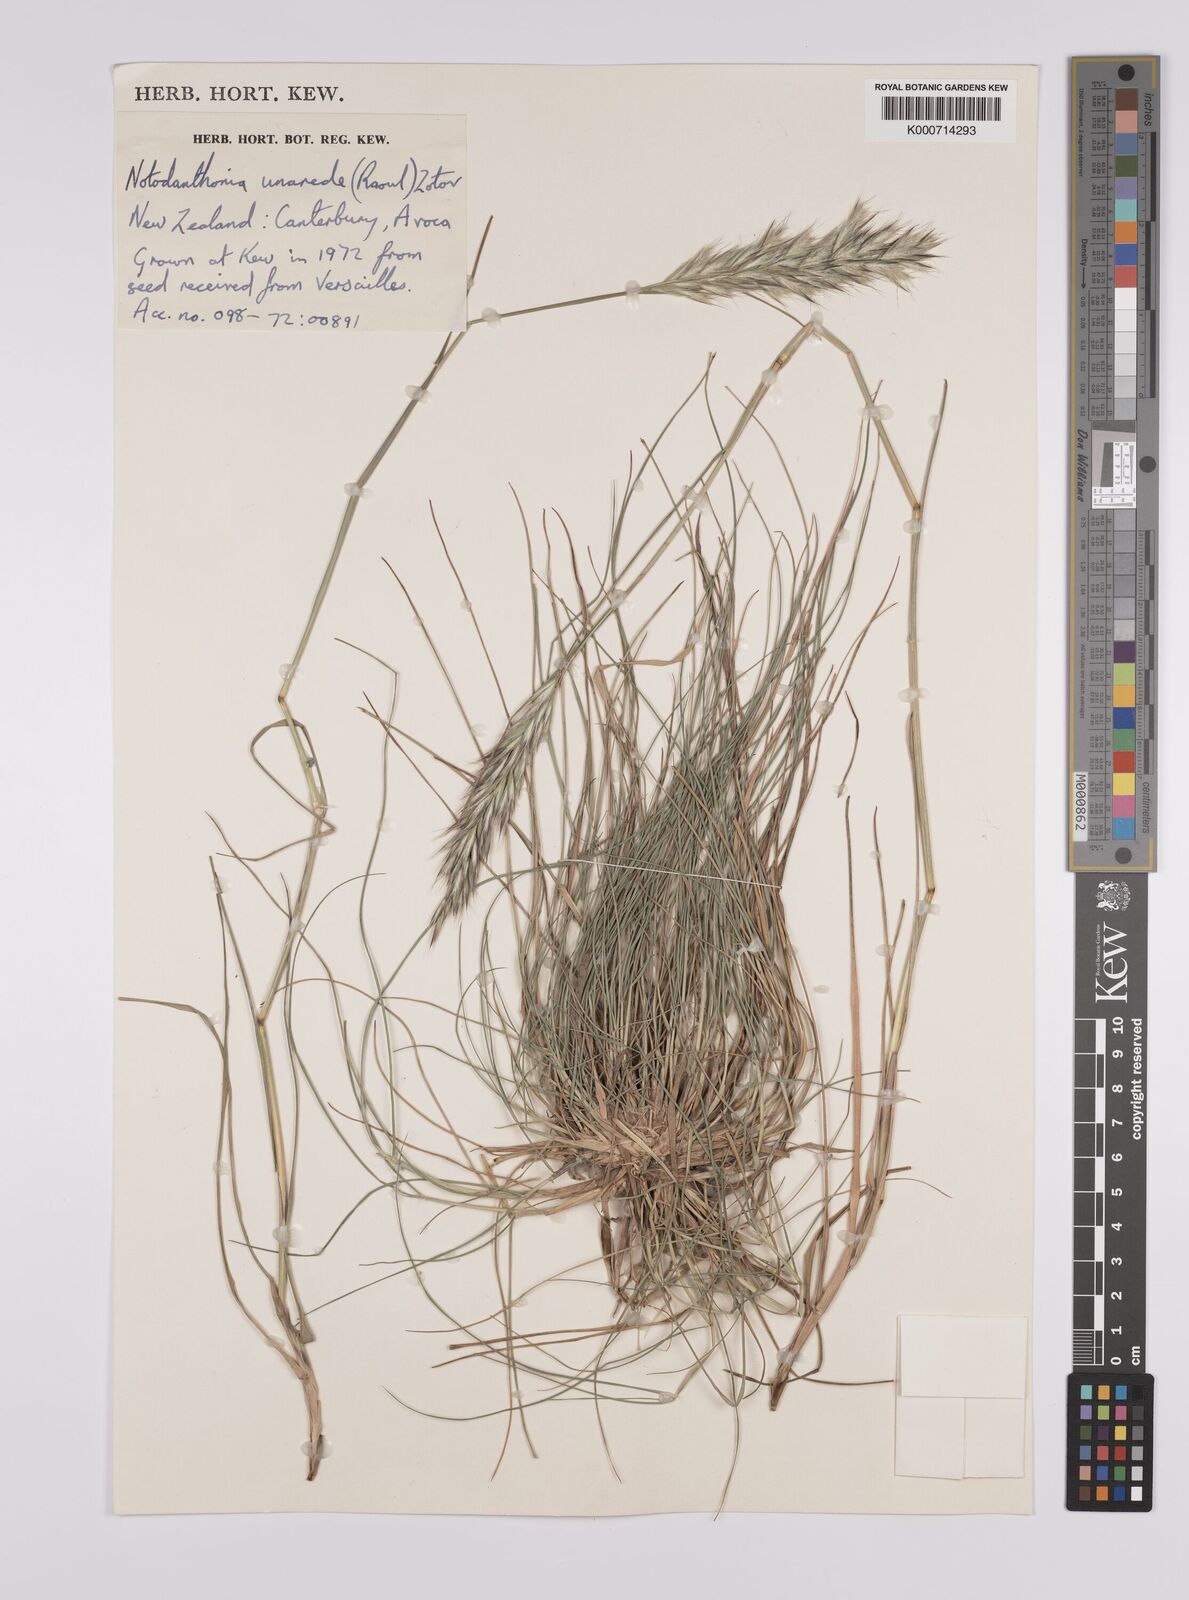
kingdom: Plantae
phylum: Tracheophyta
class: Liliopsida
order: Poales
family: Poaceae
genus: Rytidosperma
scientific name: Rytidosperma unarede
